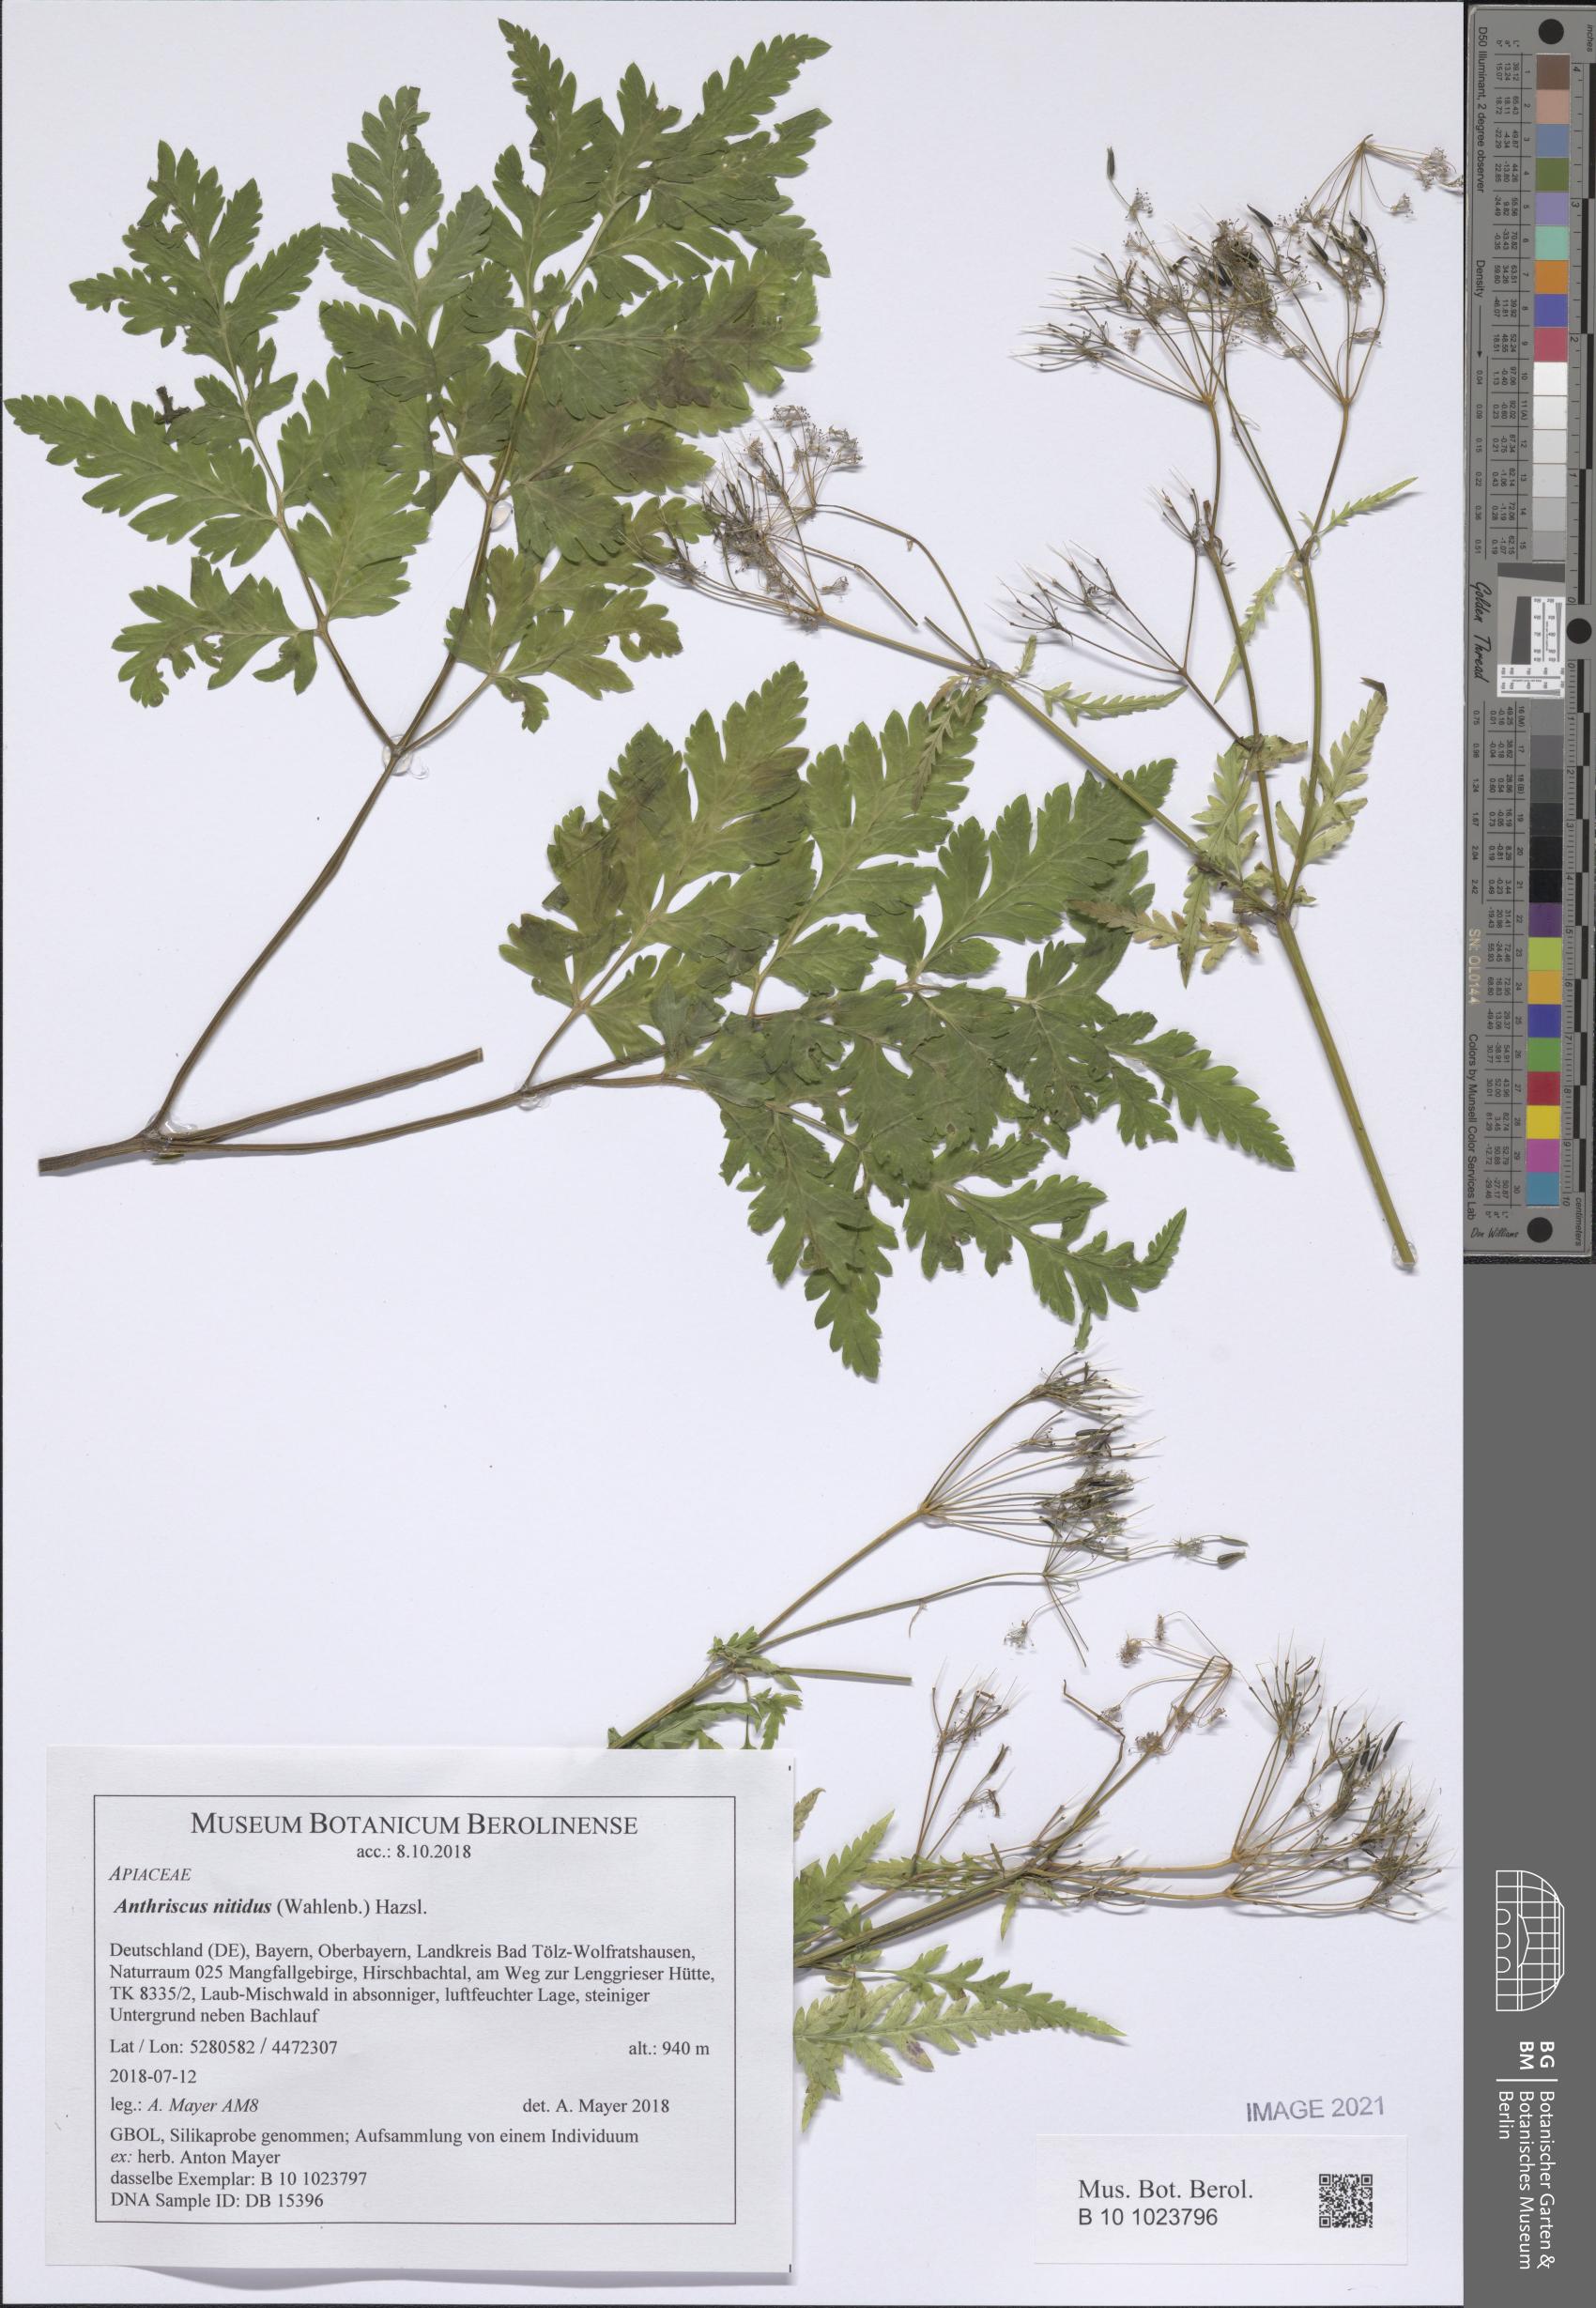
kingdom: Plantae
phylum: Tracheophyta
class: Magnoliopsida
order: Apiales
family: Apiaceae
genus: Anthriscus
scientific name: Anthriscus nitida
